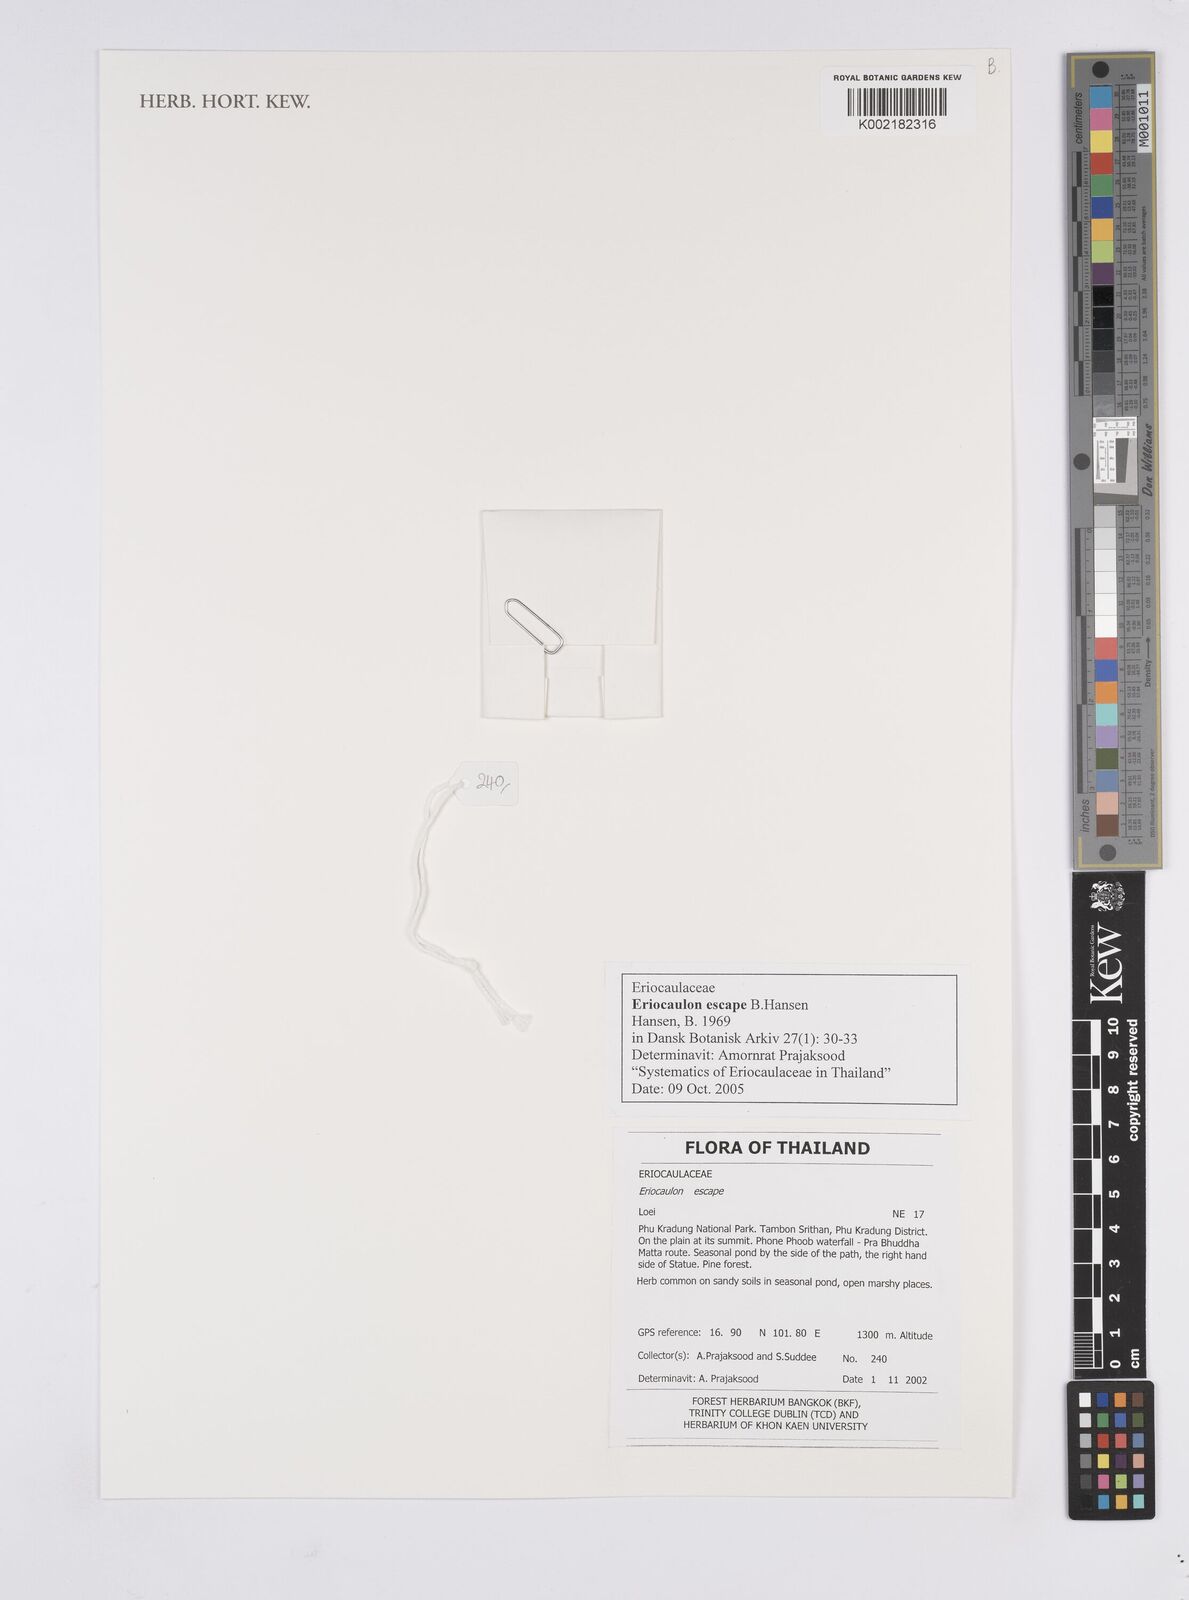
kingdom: Plantae
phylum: Tracheophyta
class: Liliopsida
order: Poales
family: Eriocaulaceae
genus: Eriocaulon
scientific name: Eriocaulon escape
